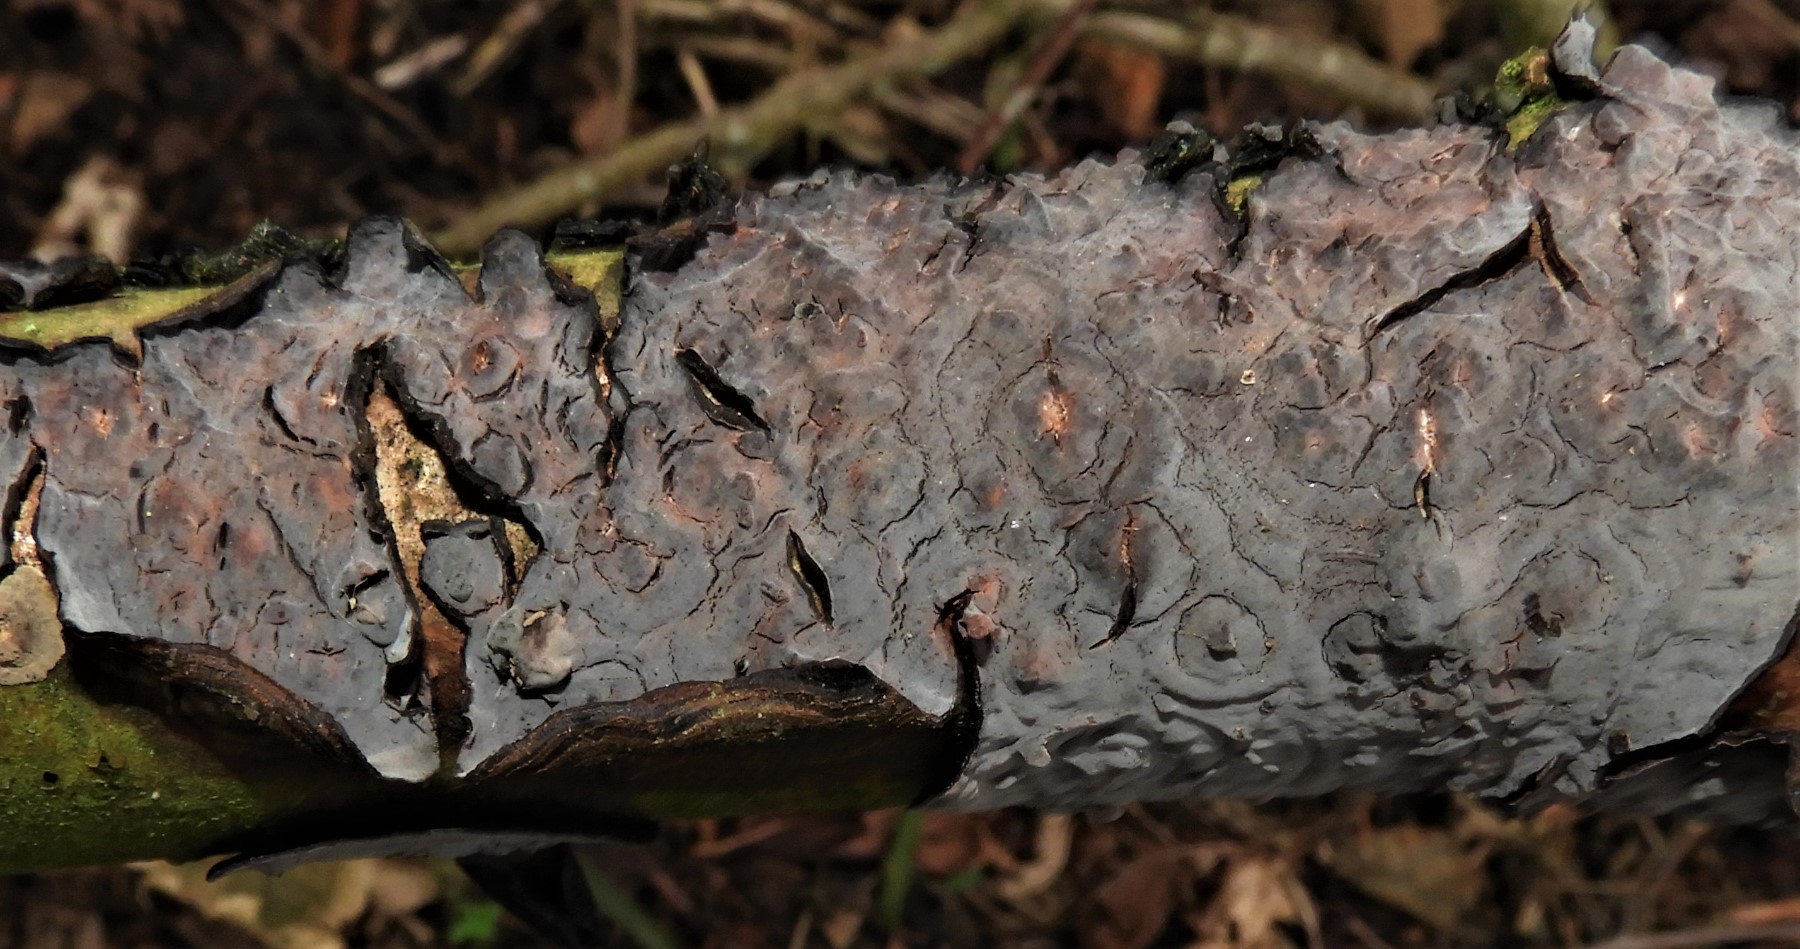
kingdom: Fungi
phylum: Basidiomycota
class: Agaricomycetes
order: Russulales
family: Peniophoraceae
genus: Peniophora
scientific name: Peniophora quercina
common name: ege-voksskind
